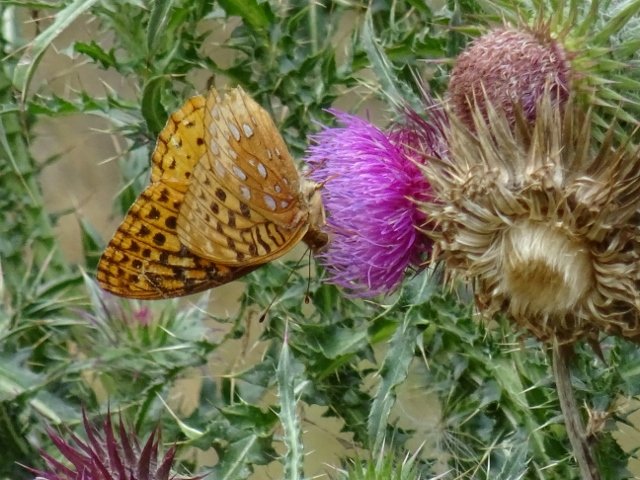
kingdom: Animalia
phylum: Arthropoda
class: Insecta
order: Lepidoptera
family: Nymphalidae
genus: Speyeria
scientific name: Speyeria cybele
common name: Great Spangled Fritillary
